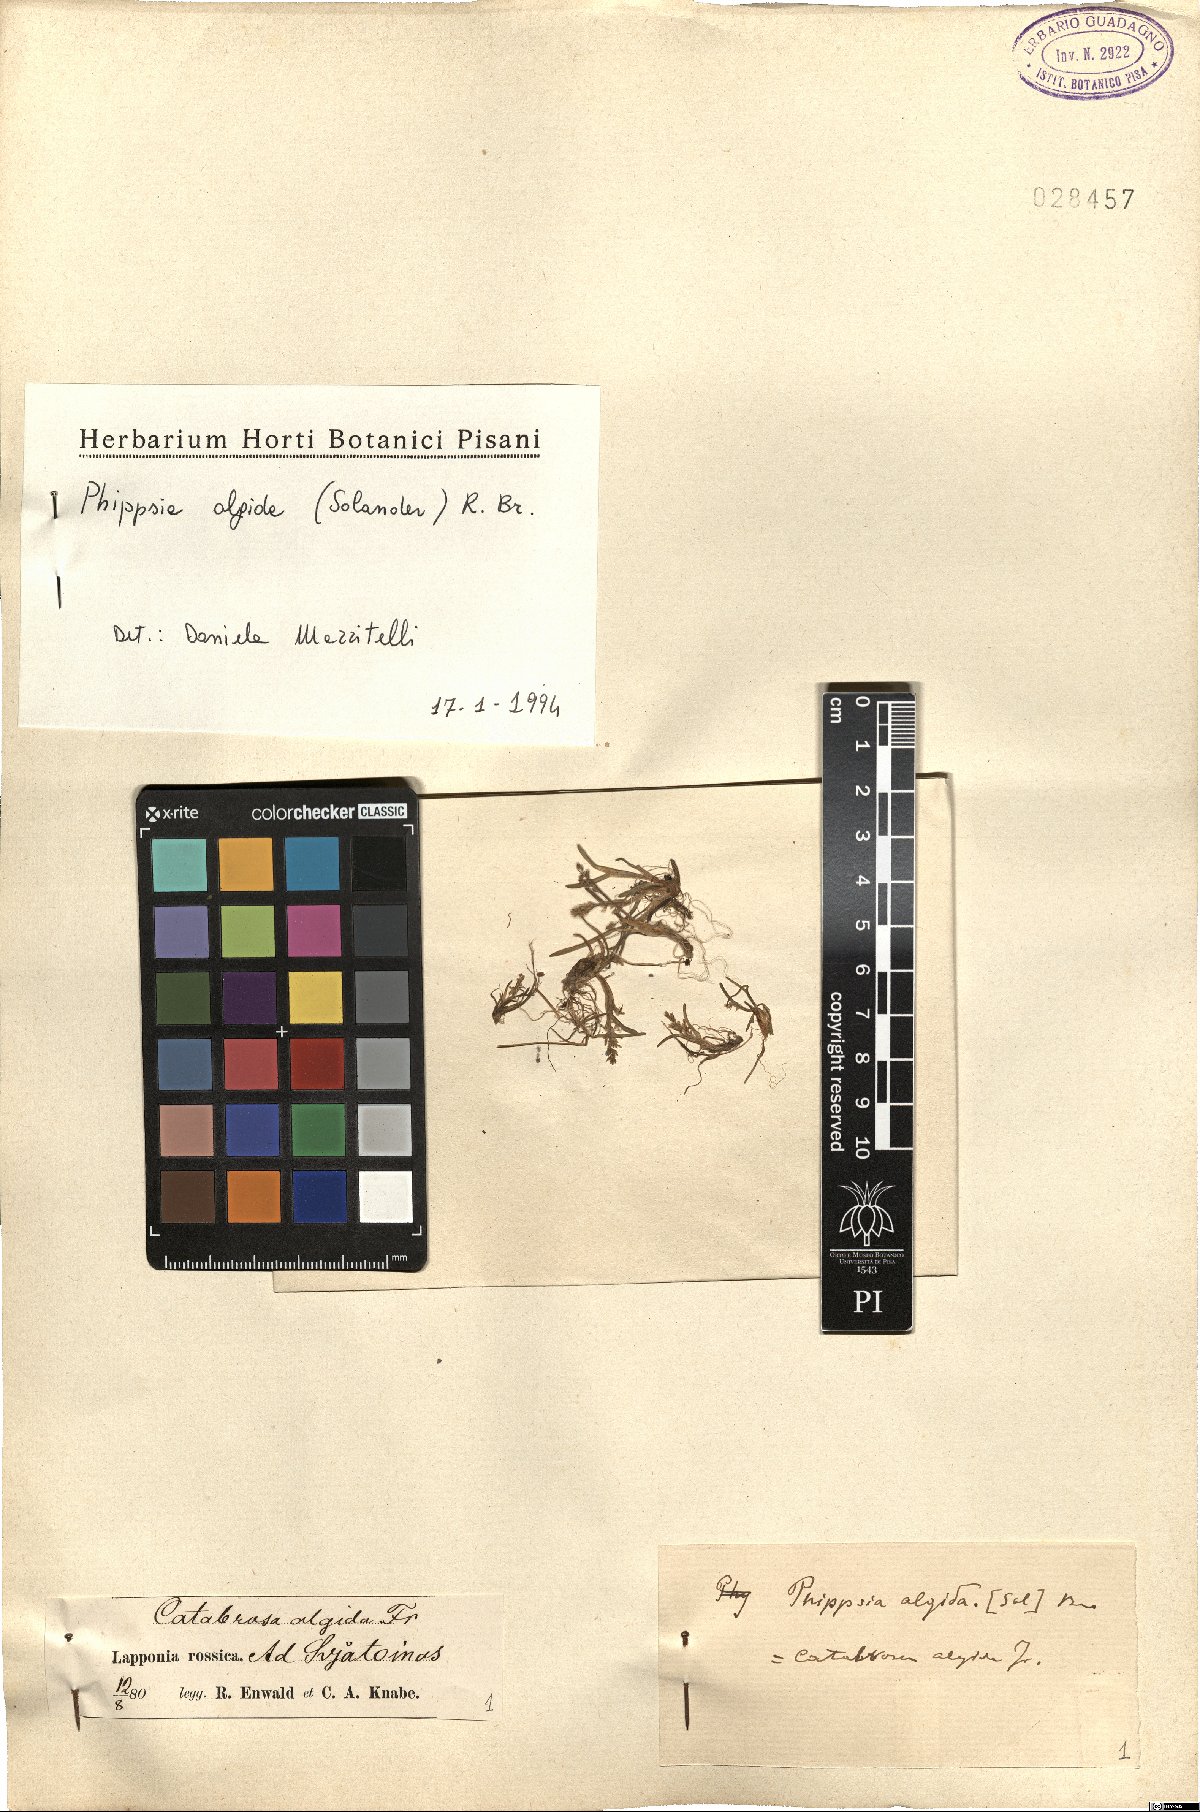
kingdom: Plantae
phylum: Tracheophyta
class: Liliopsida
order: Poales
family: Poaceae
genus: Phippsia
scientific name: Phippsia algida
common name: Ice grass
